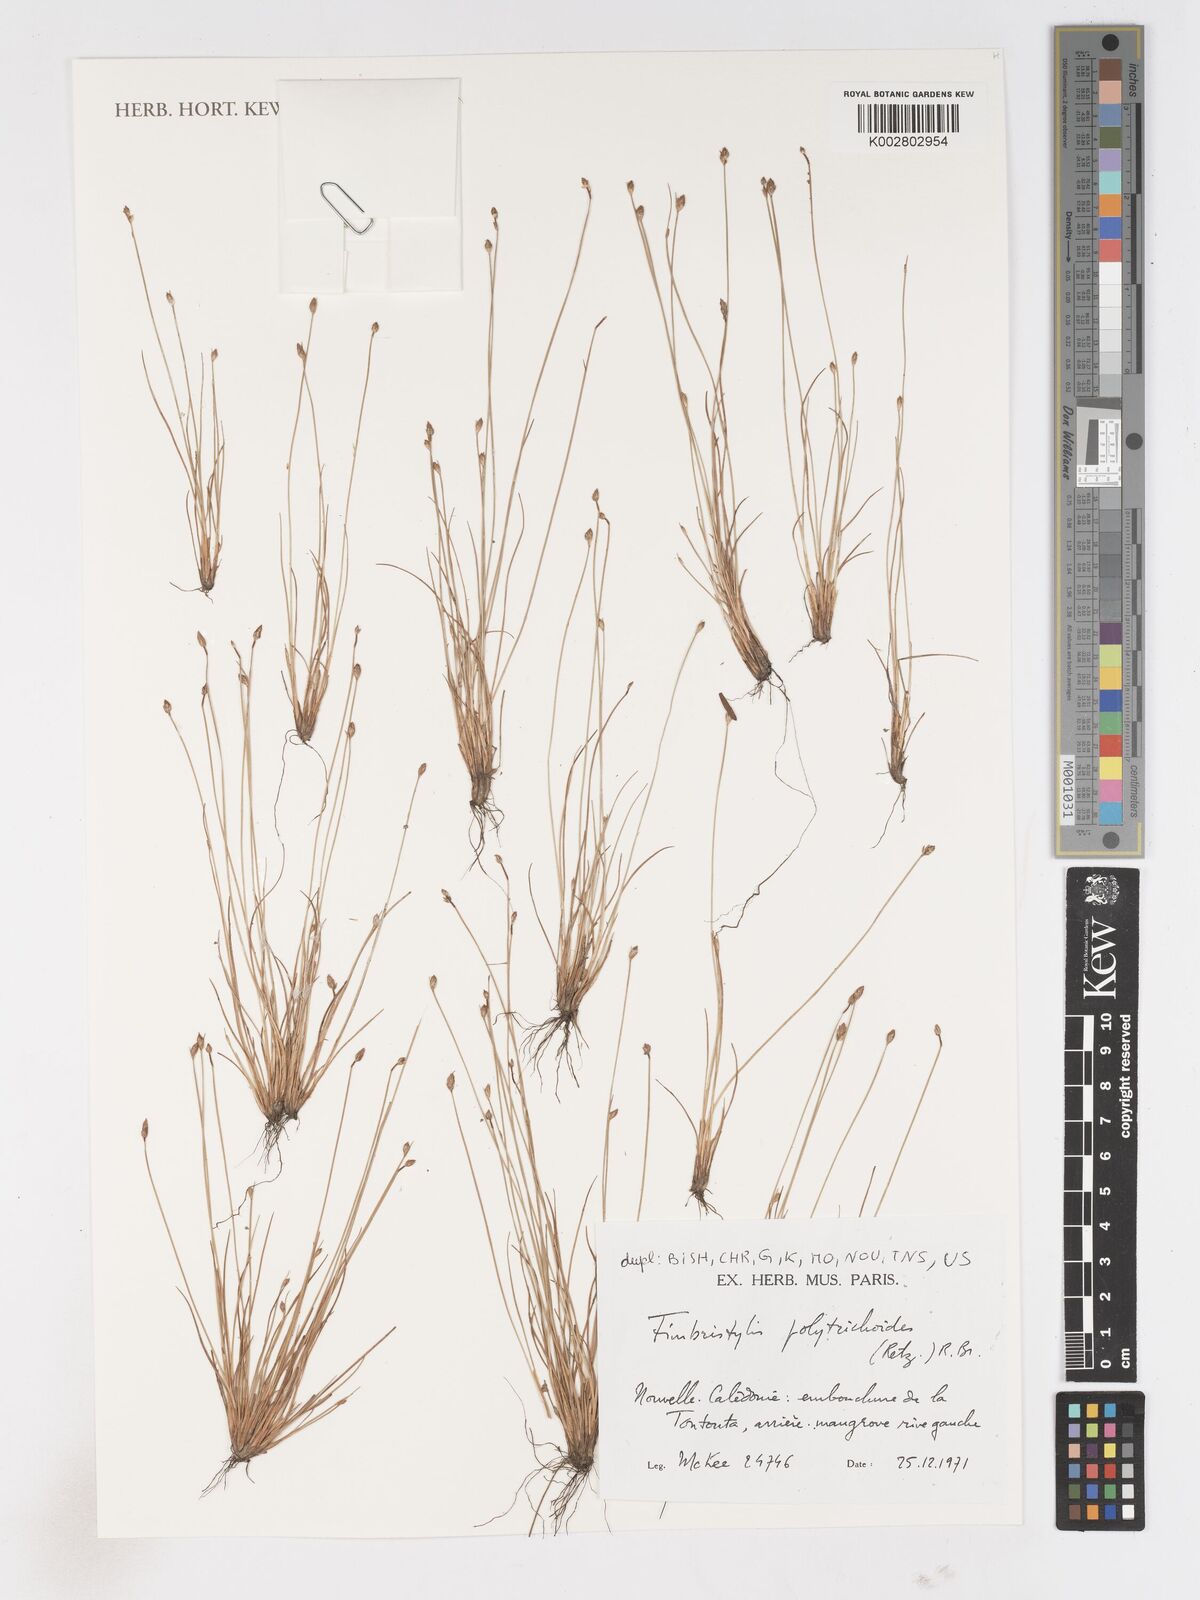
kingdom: Plantae
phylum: Tracheophyta
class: Liliopsida
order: Poales
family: Cyperaceae
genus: Fimbristylis
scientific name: Fimbristylis polytrichoides
